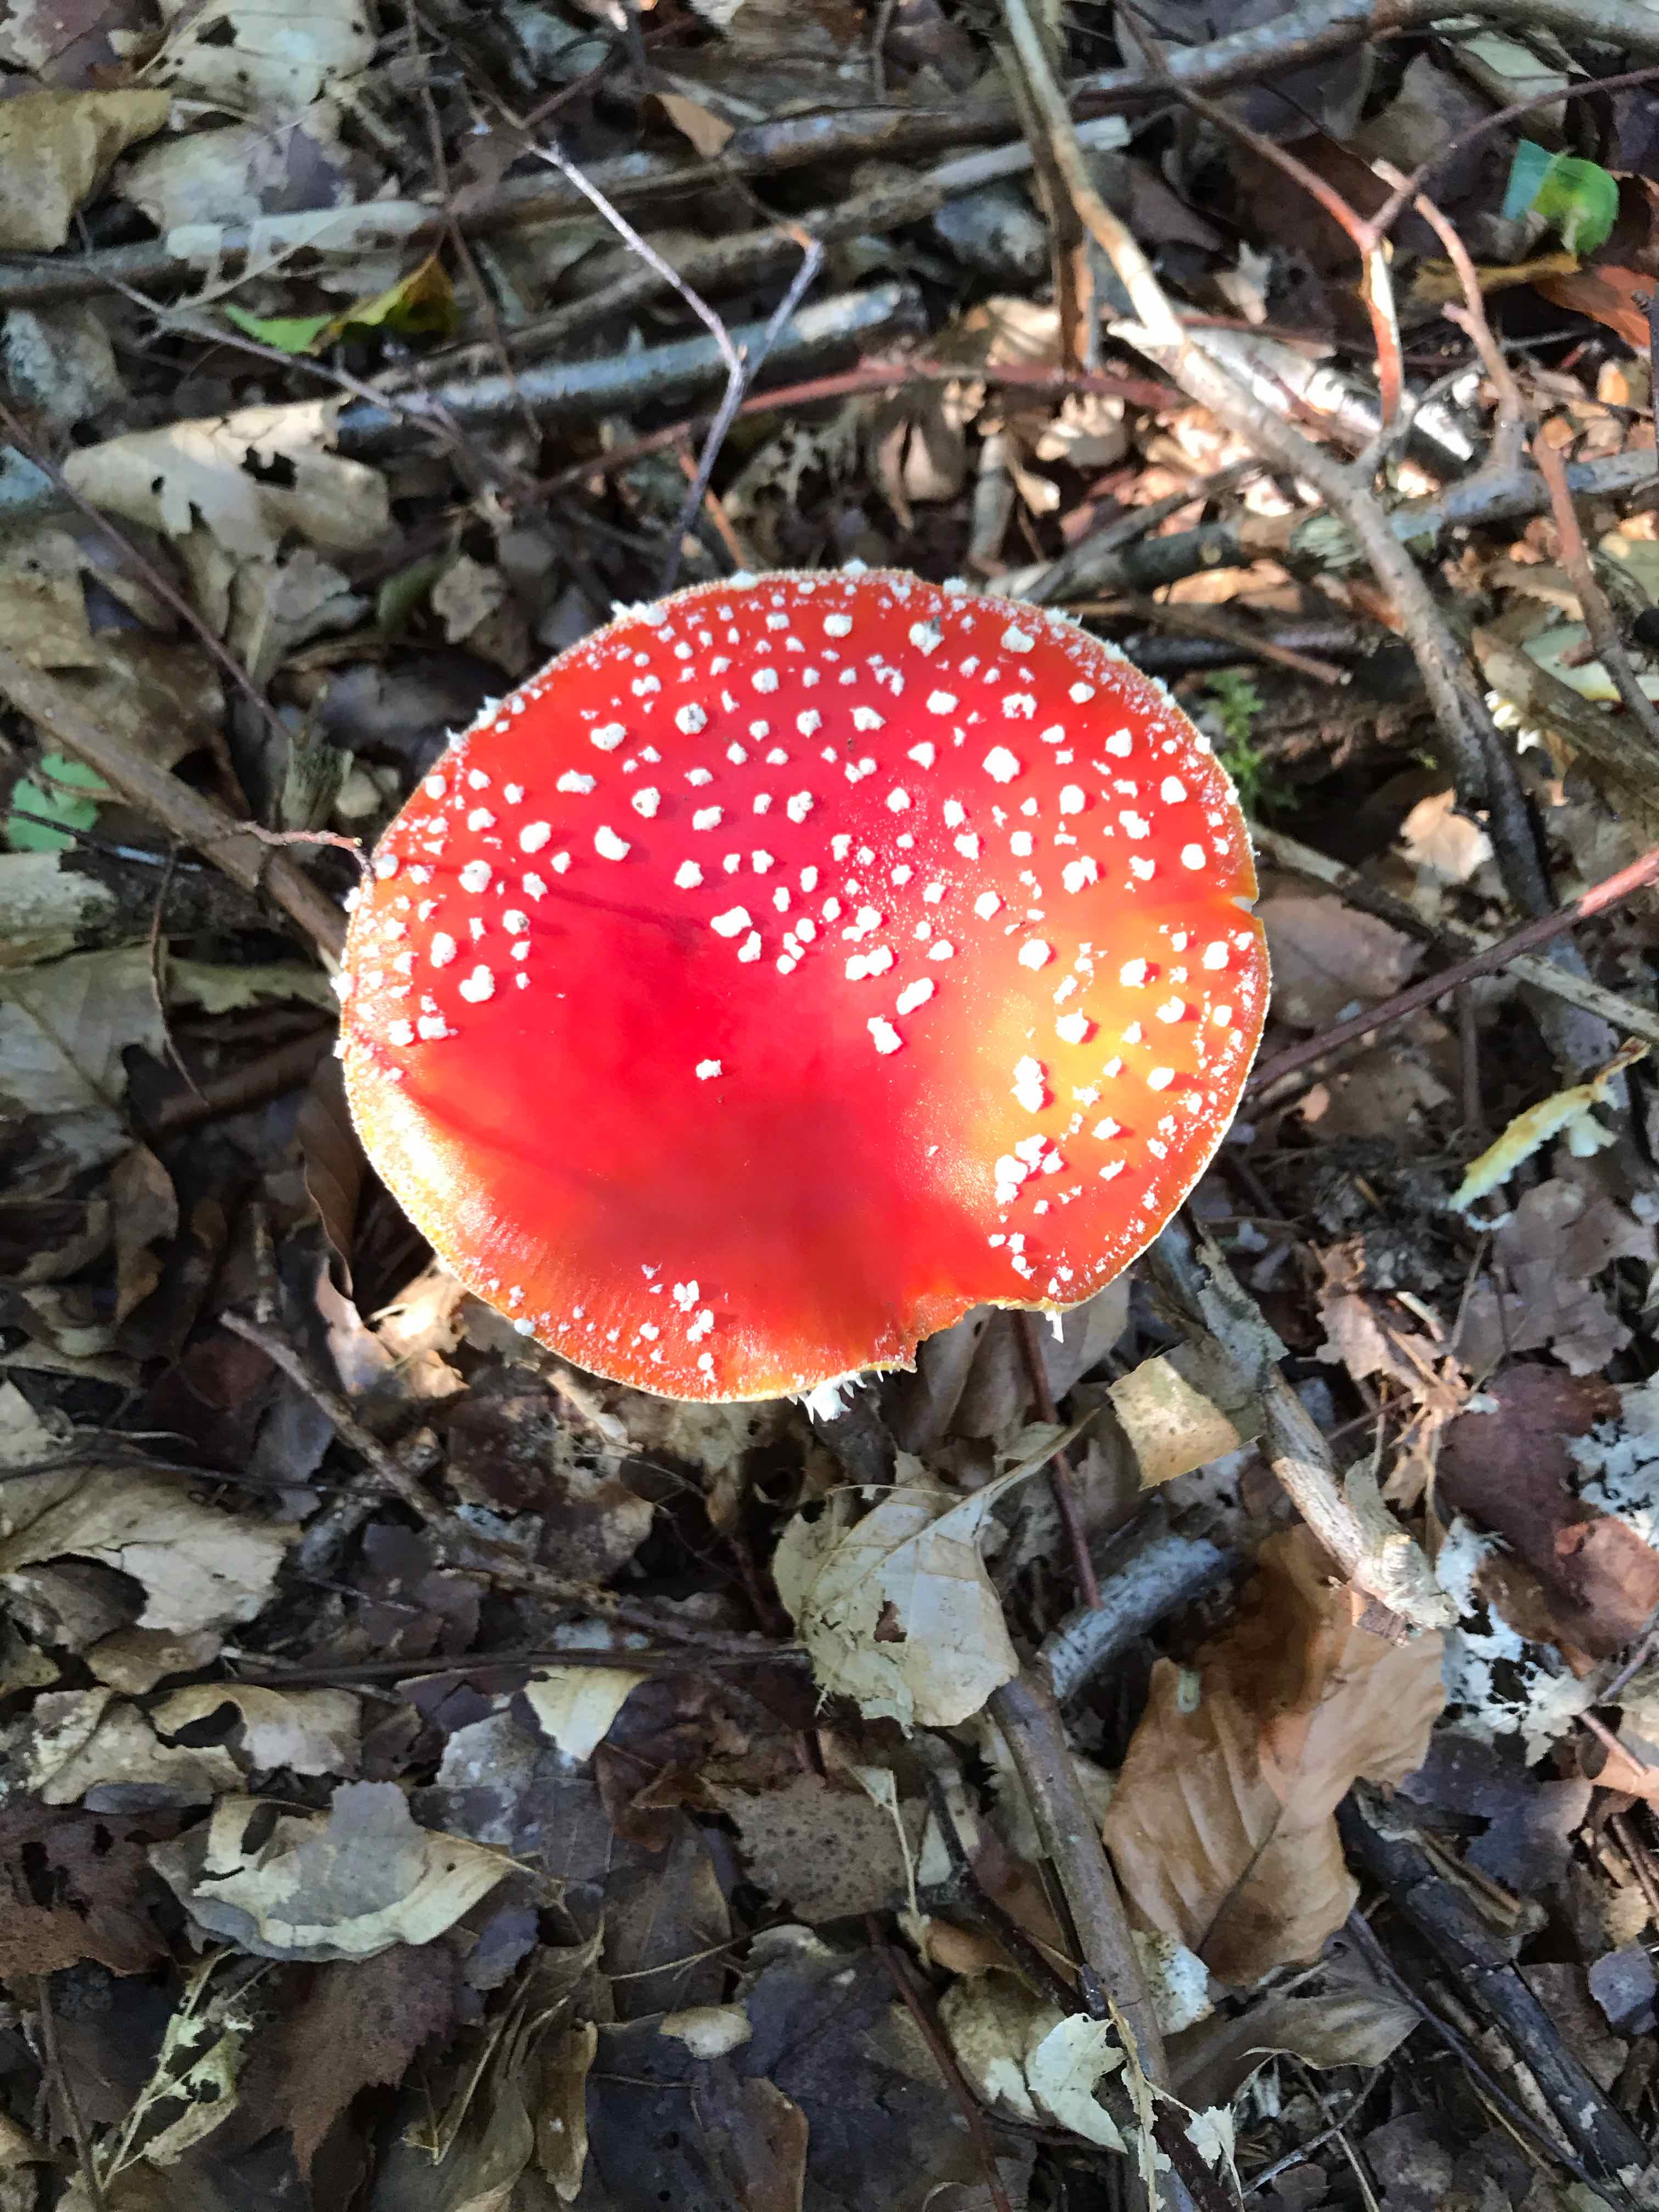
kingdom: Fungi
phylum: Basidiomycota
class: Agaricomycetes
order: Agaricales
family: Amanitaceae
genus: Amanita
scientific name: Amanita muscaria
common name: rød fluesvamp
